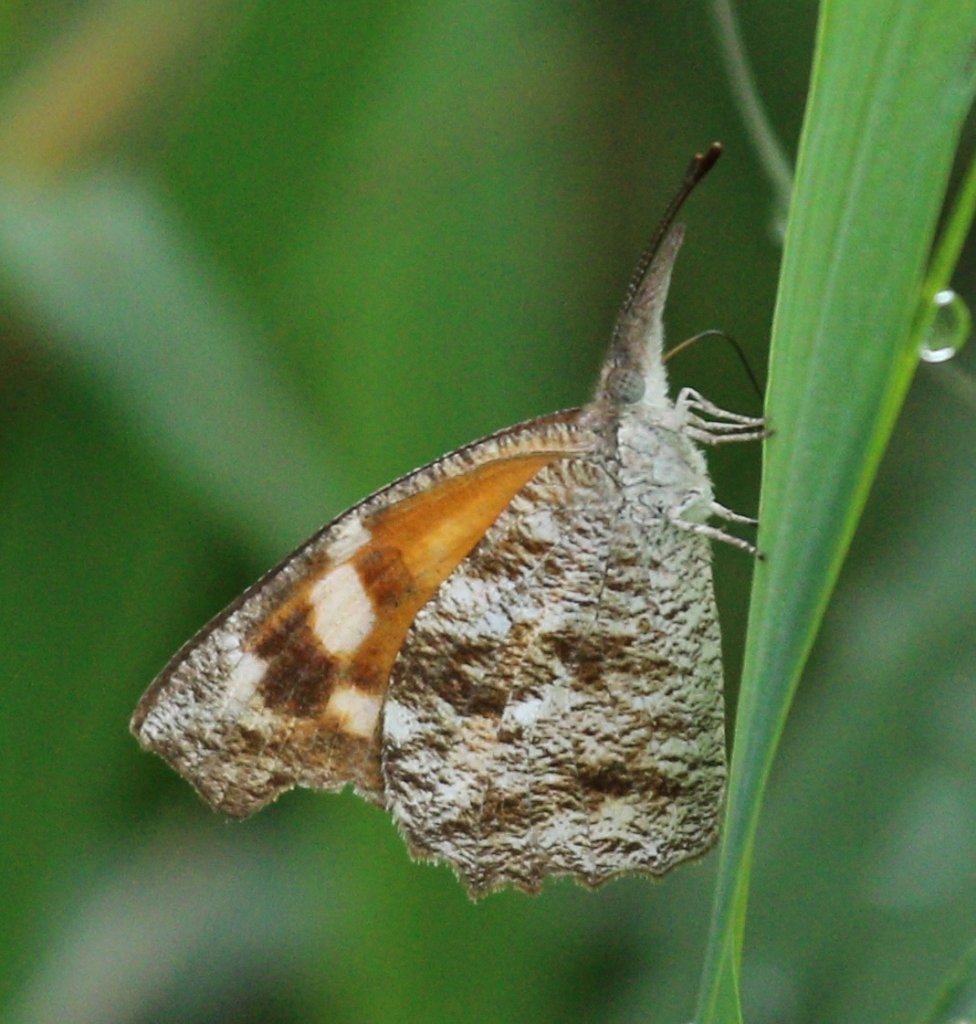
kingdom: Animalia
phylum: Arthropoda
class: Insecta
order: Lepidoptera
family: Nymphalidae
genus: Libytheana
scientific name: Libytheana carinenta
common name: American Snout
